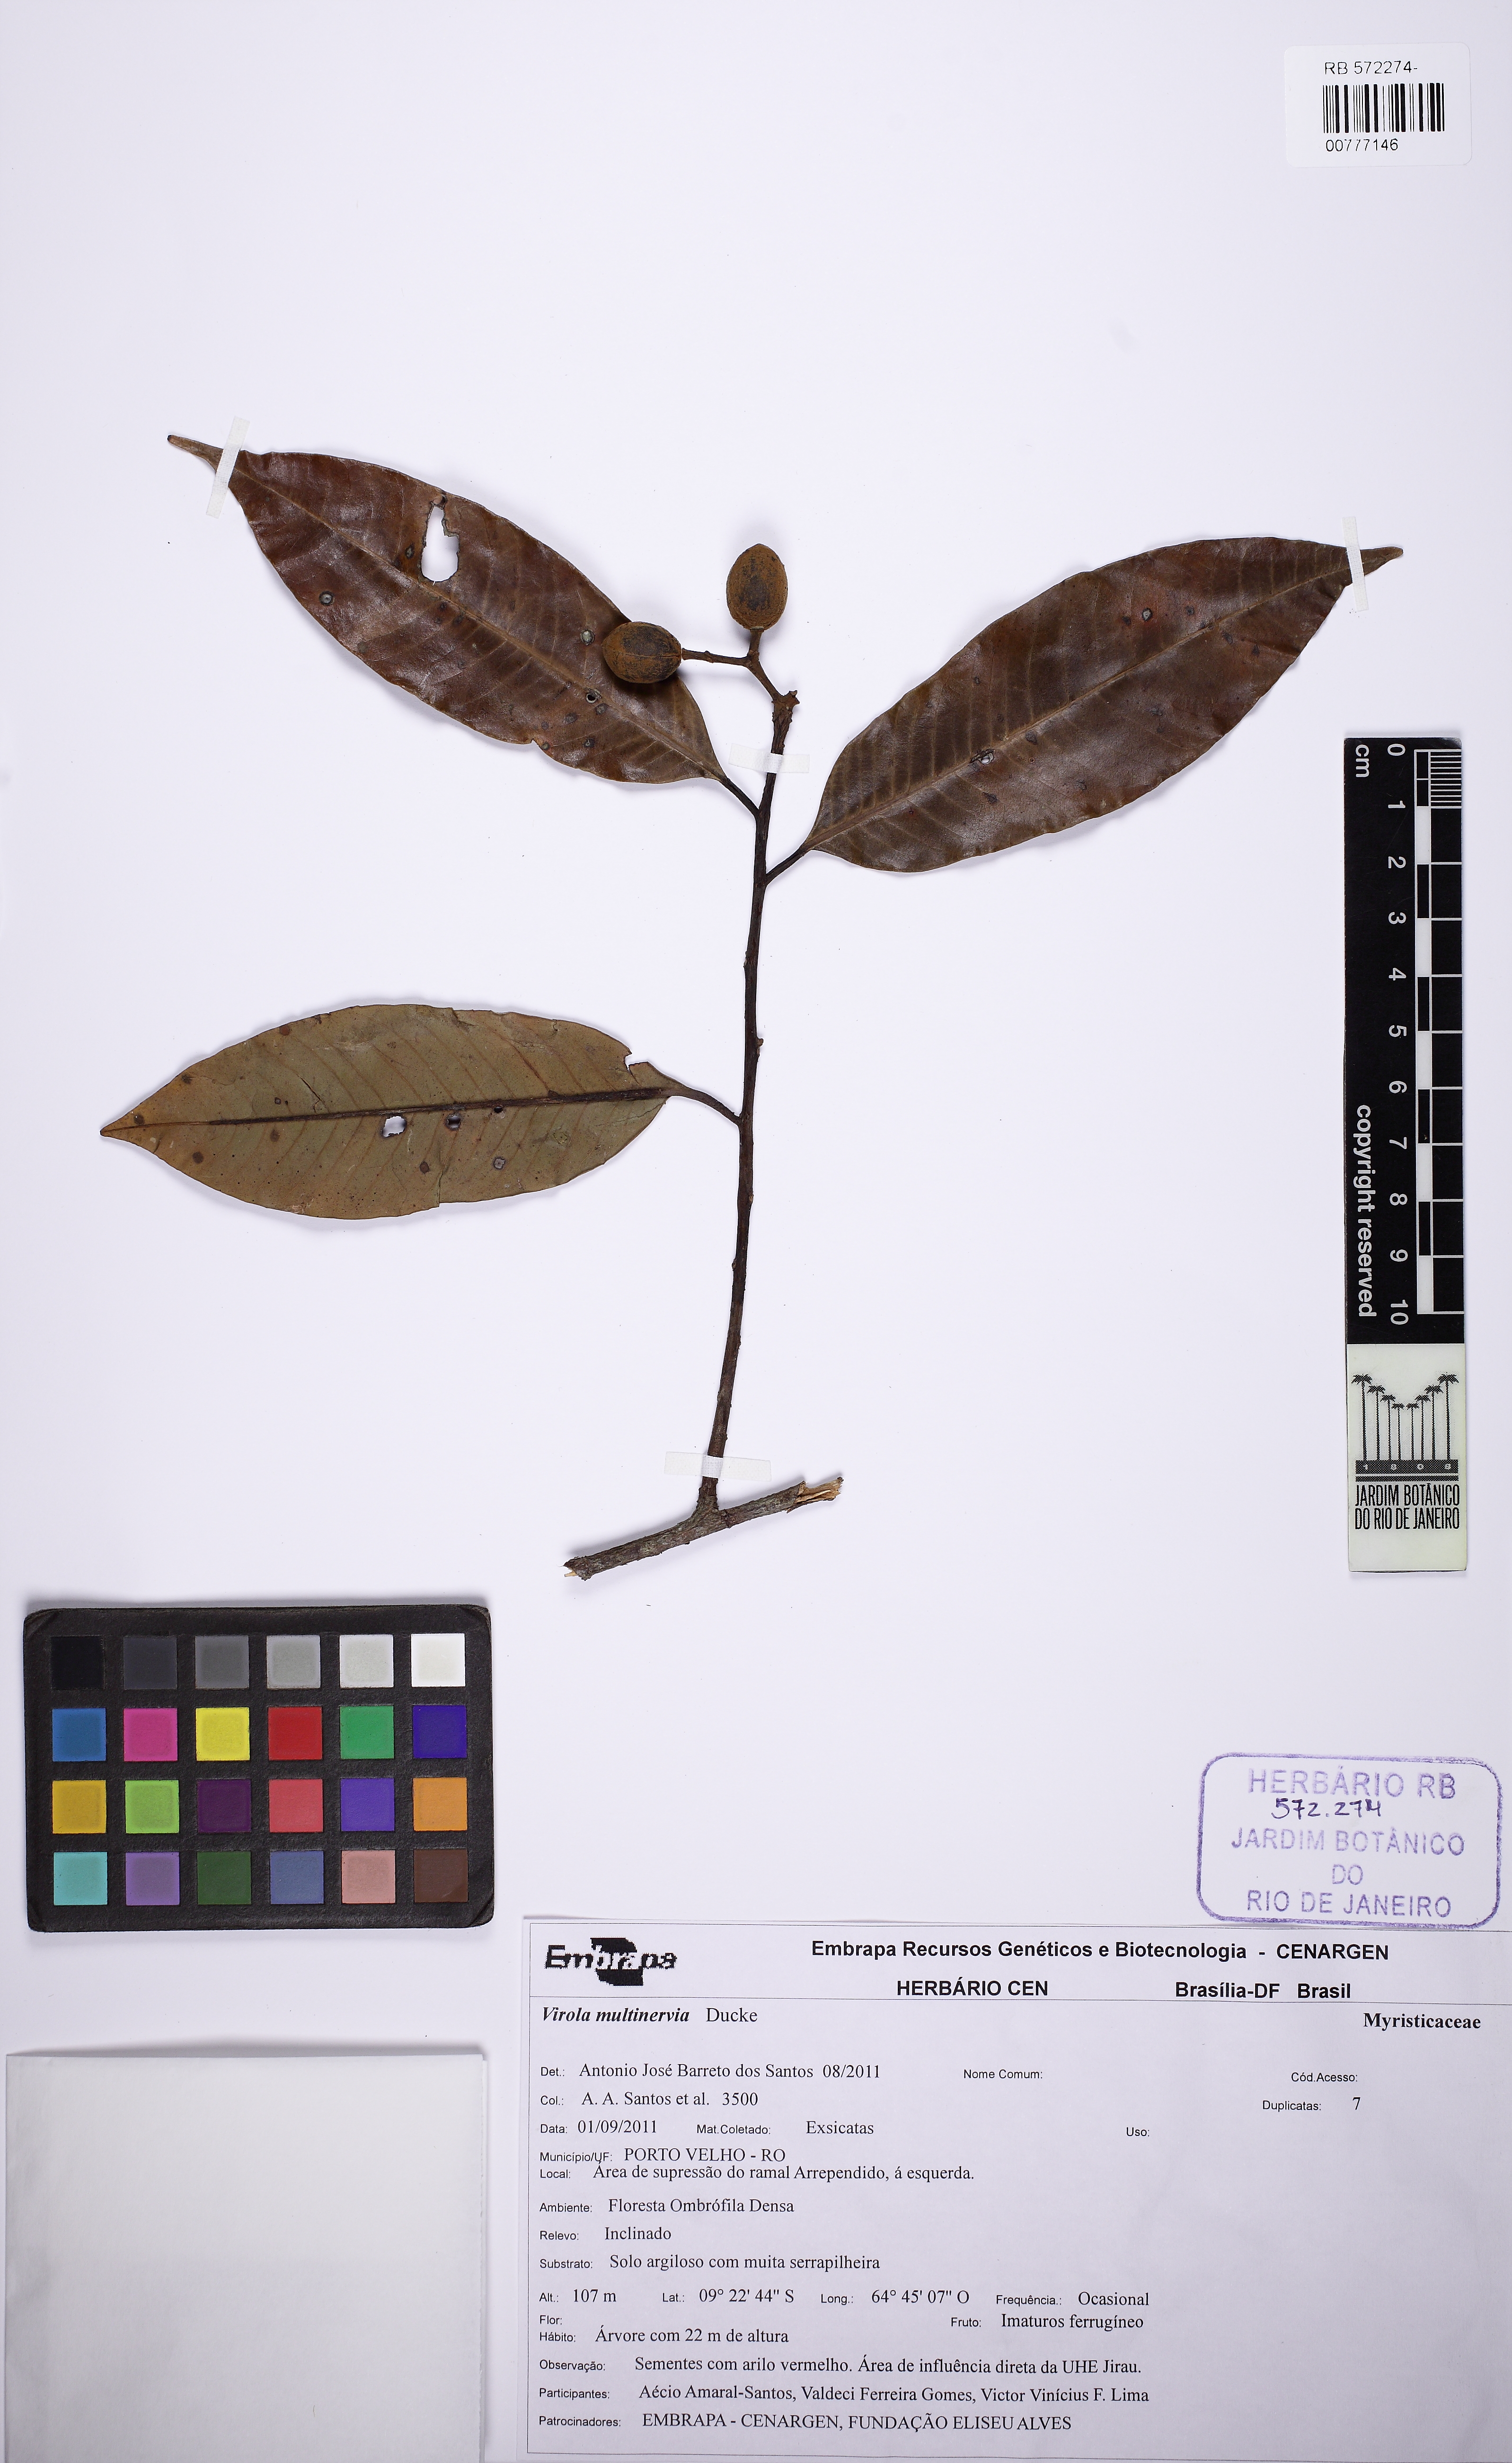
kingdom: Plantae
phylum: Tracheophyta
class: Magnoliopsida
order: Magnoliales
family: Myristicaceae
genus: Virola
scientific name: Virola multinervia
